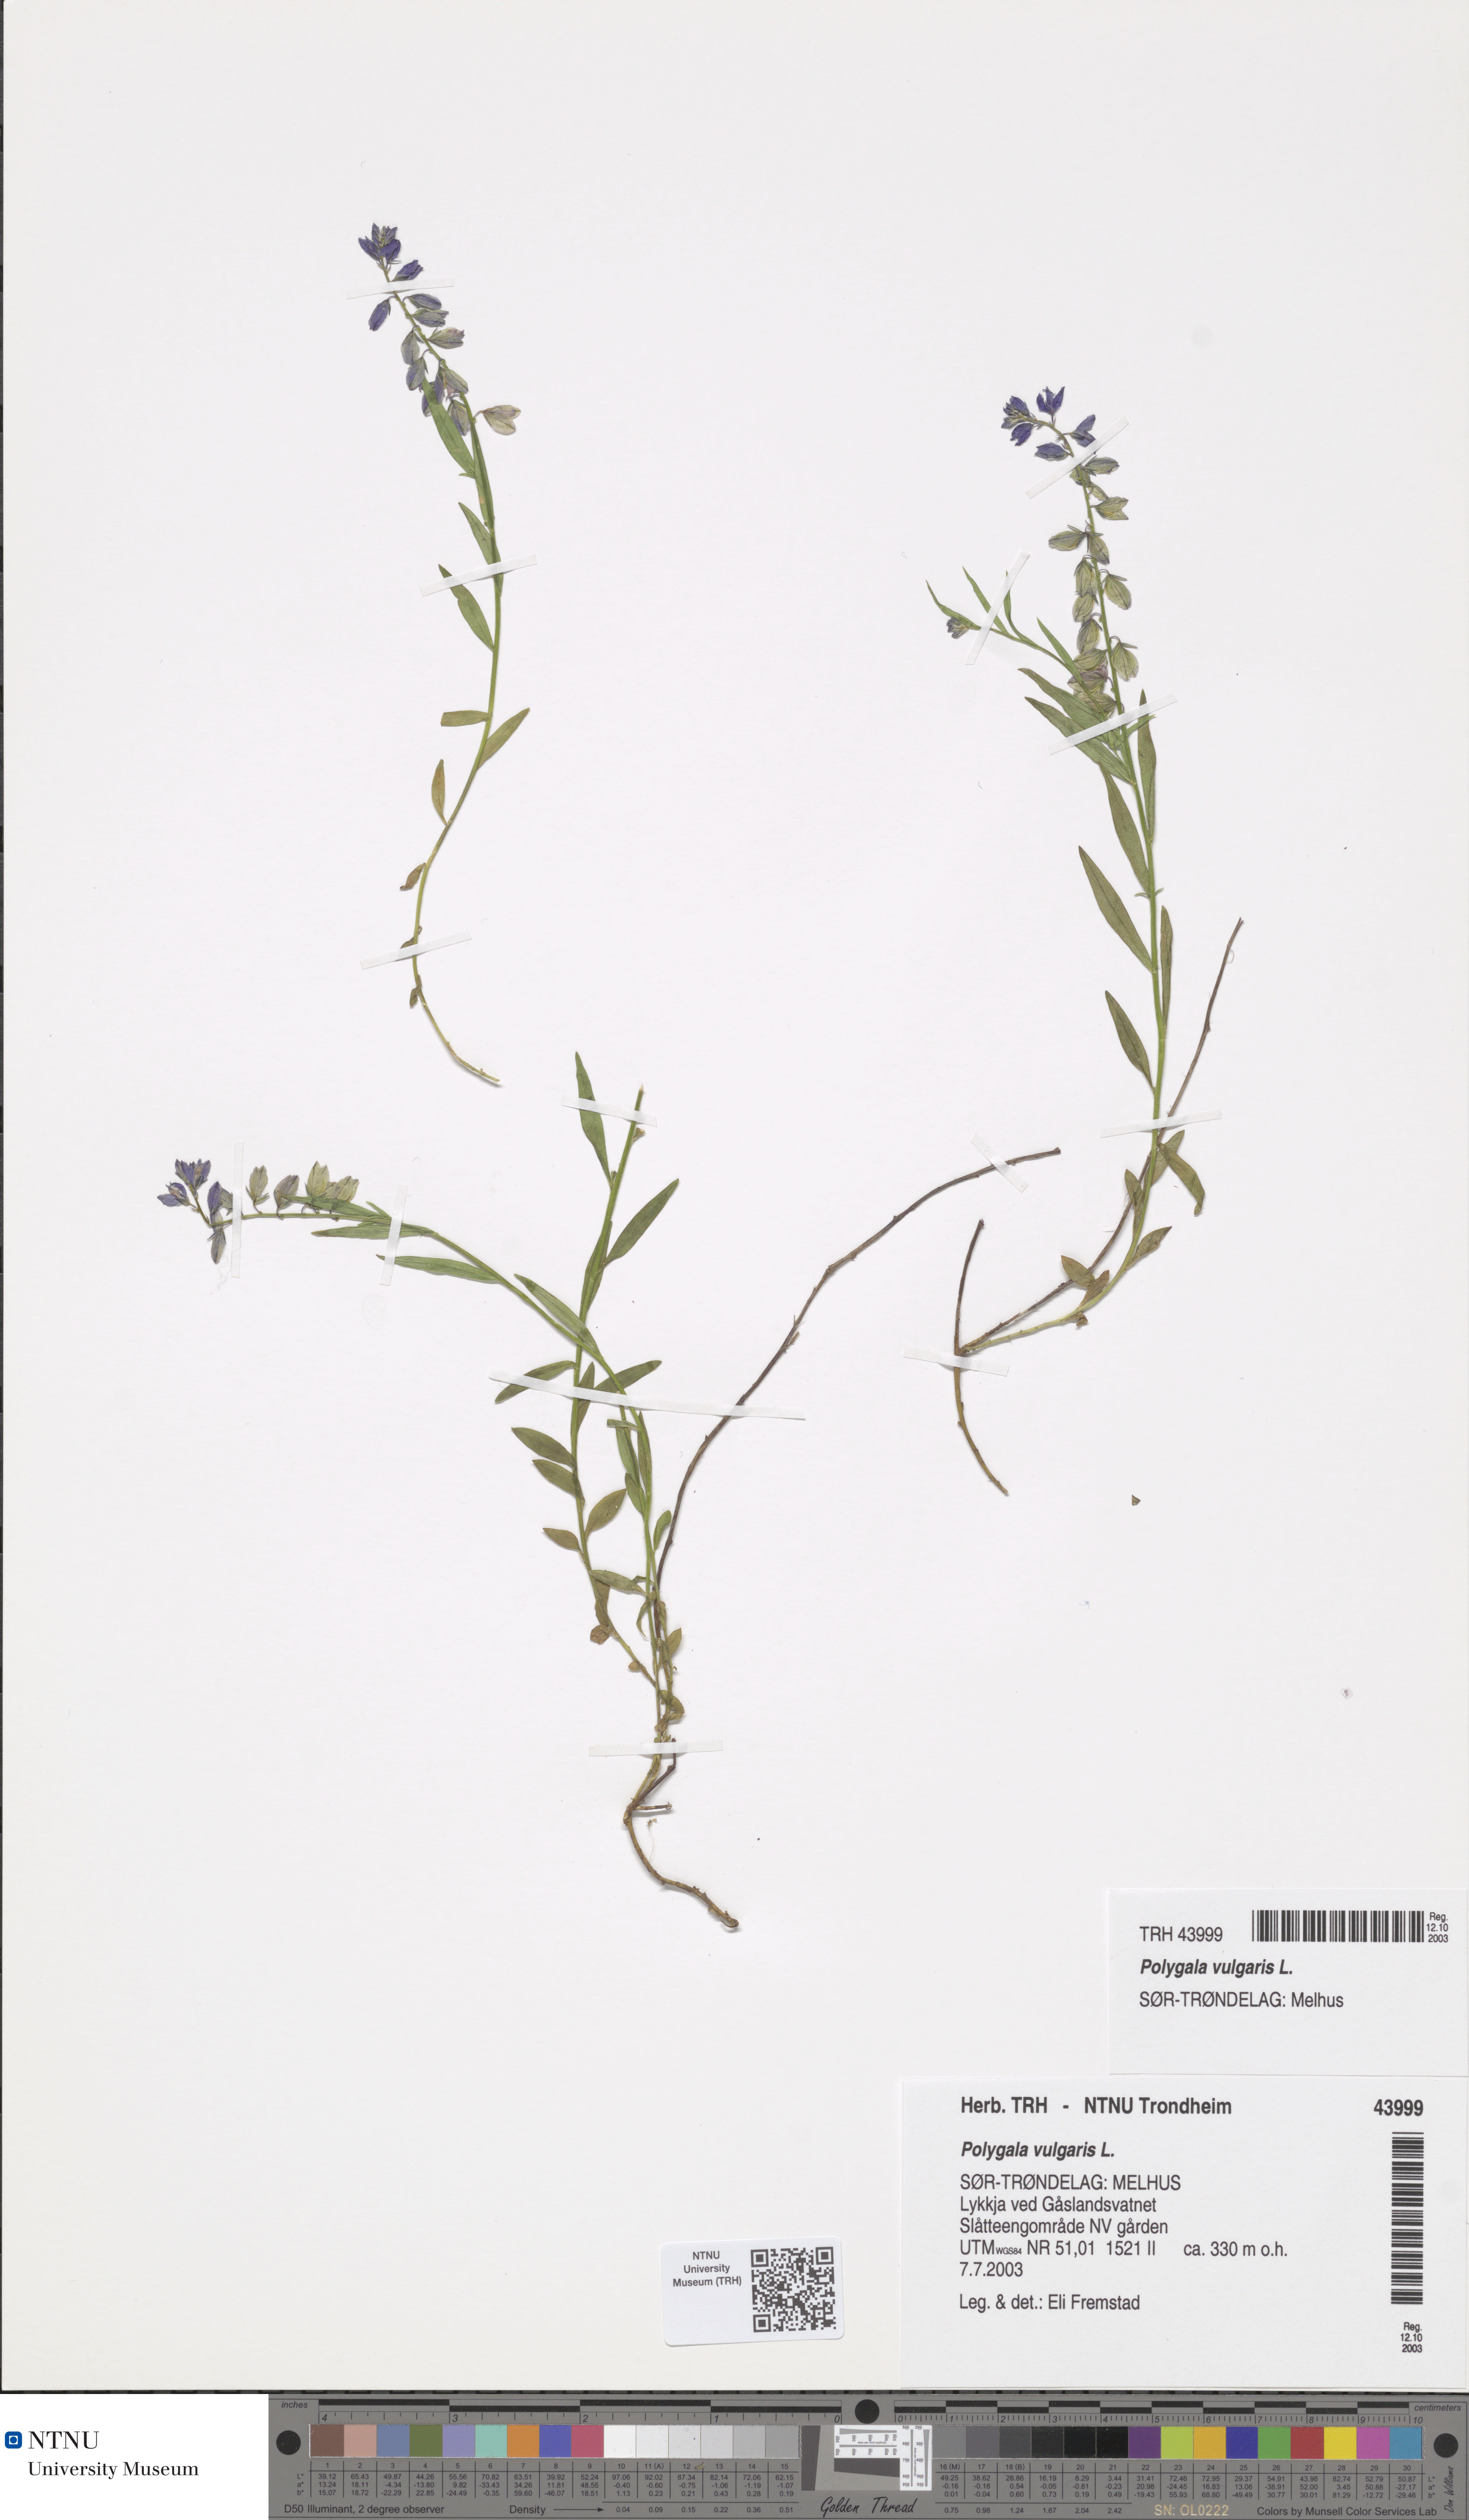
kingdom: Plantae
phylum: Tracheophyta
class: Magnoliopsida
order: Fabales
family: Polygalaceae
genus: Polygala
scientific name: Polygala vulgaris
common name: Common milkwort
